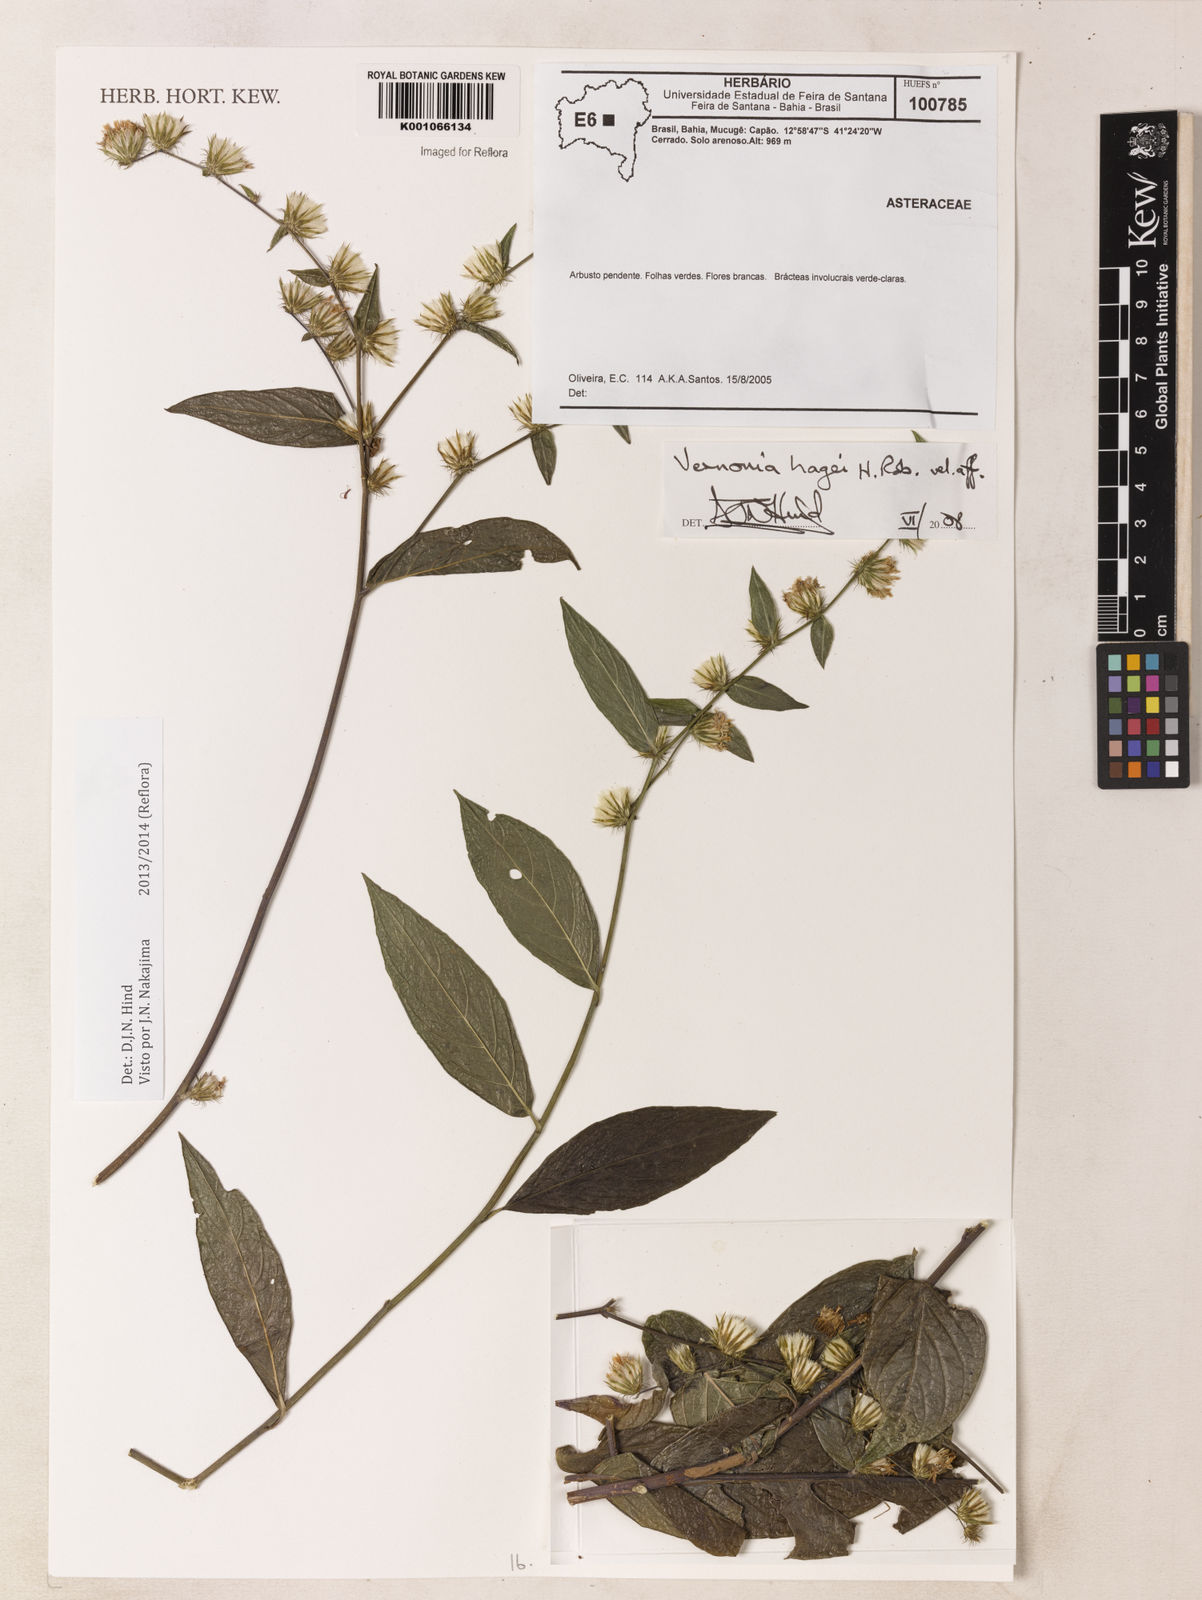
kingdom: Plantae
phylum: Tracheophyta
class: Magnoliopsida
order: Asterales
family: Asteraceae
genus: Lepidaploa
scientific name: Lepidaploa hagei
